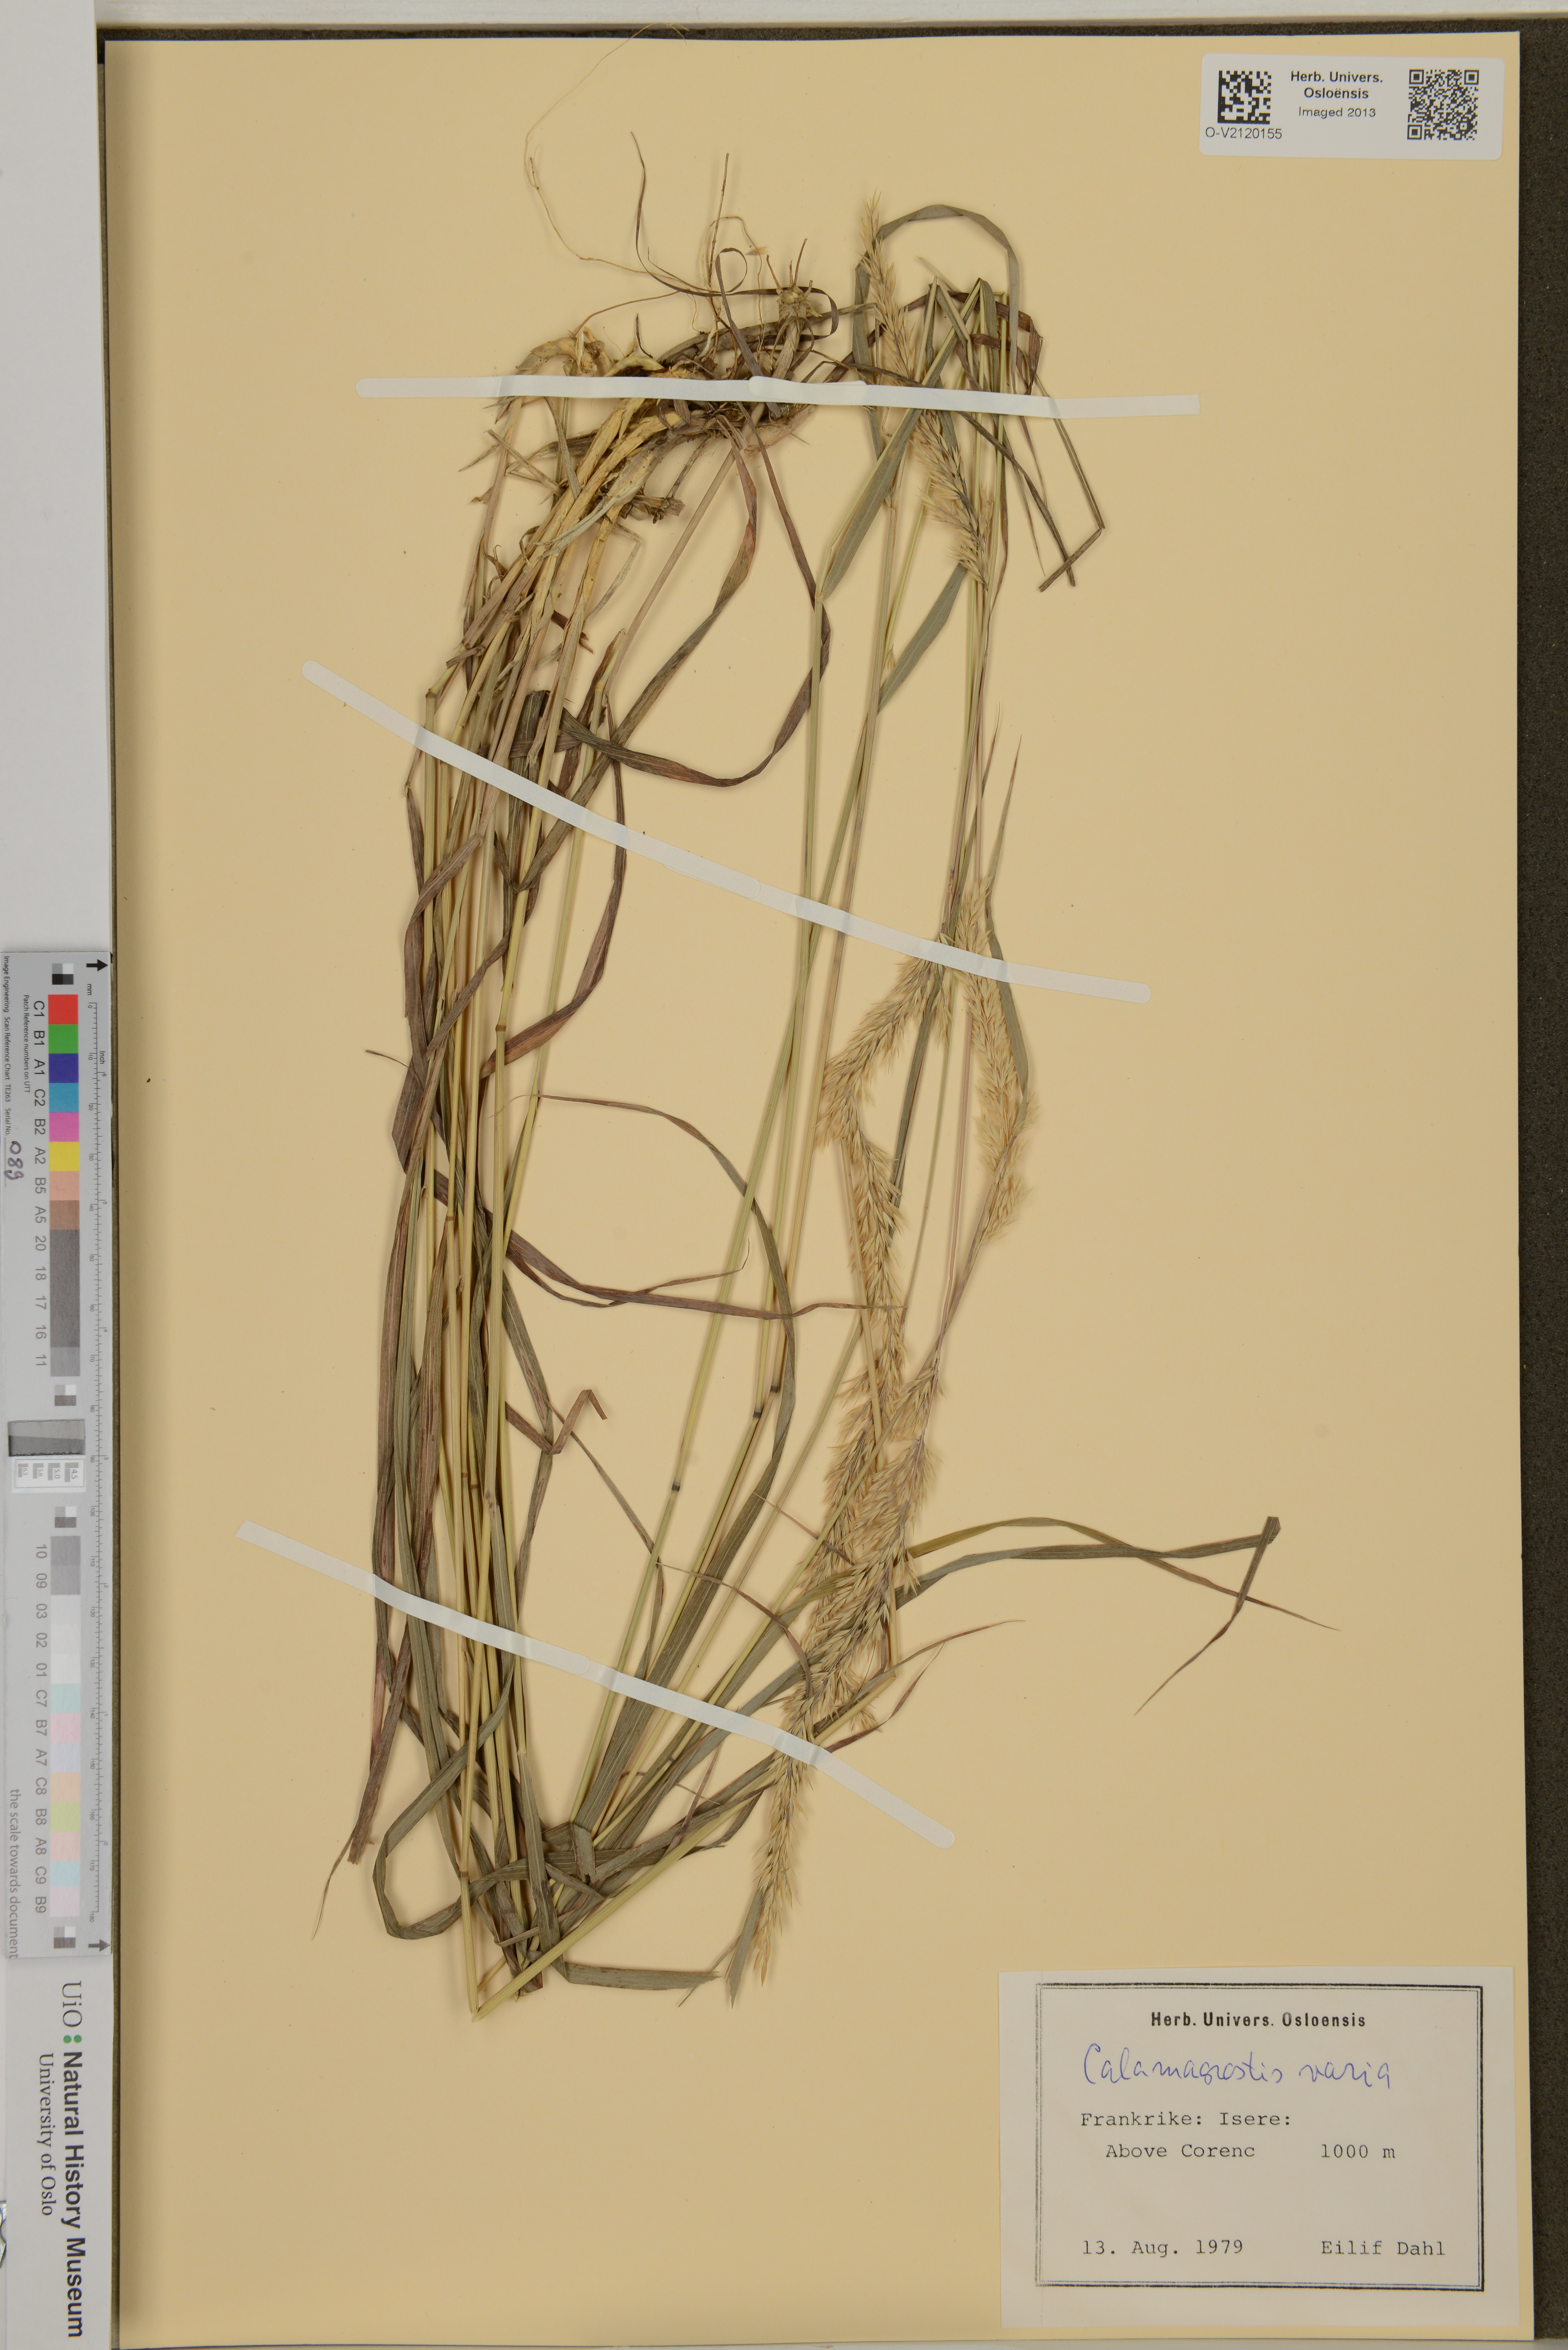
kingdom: Plantae
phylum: Tracheophyta
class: Liliopsida
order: Poales
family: Poaceae
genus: Calamagrostis
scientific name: Calamagrostis varia
